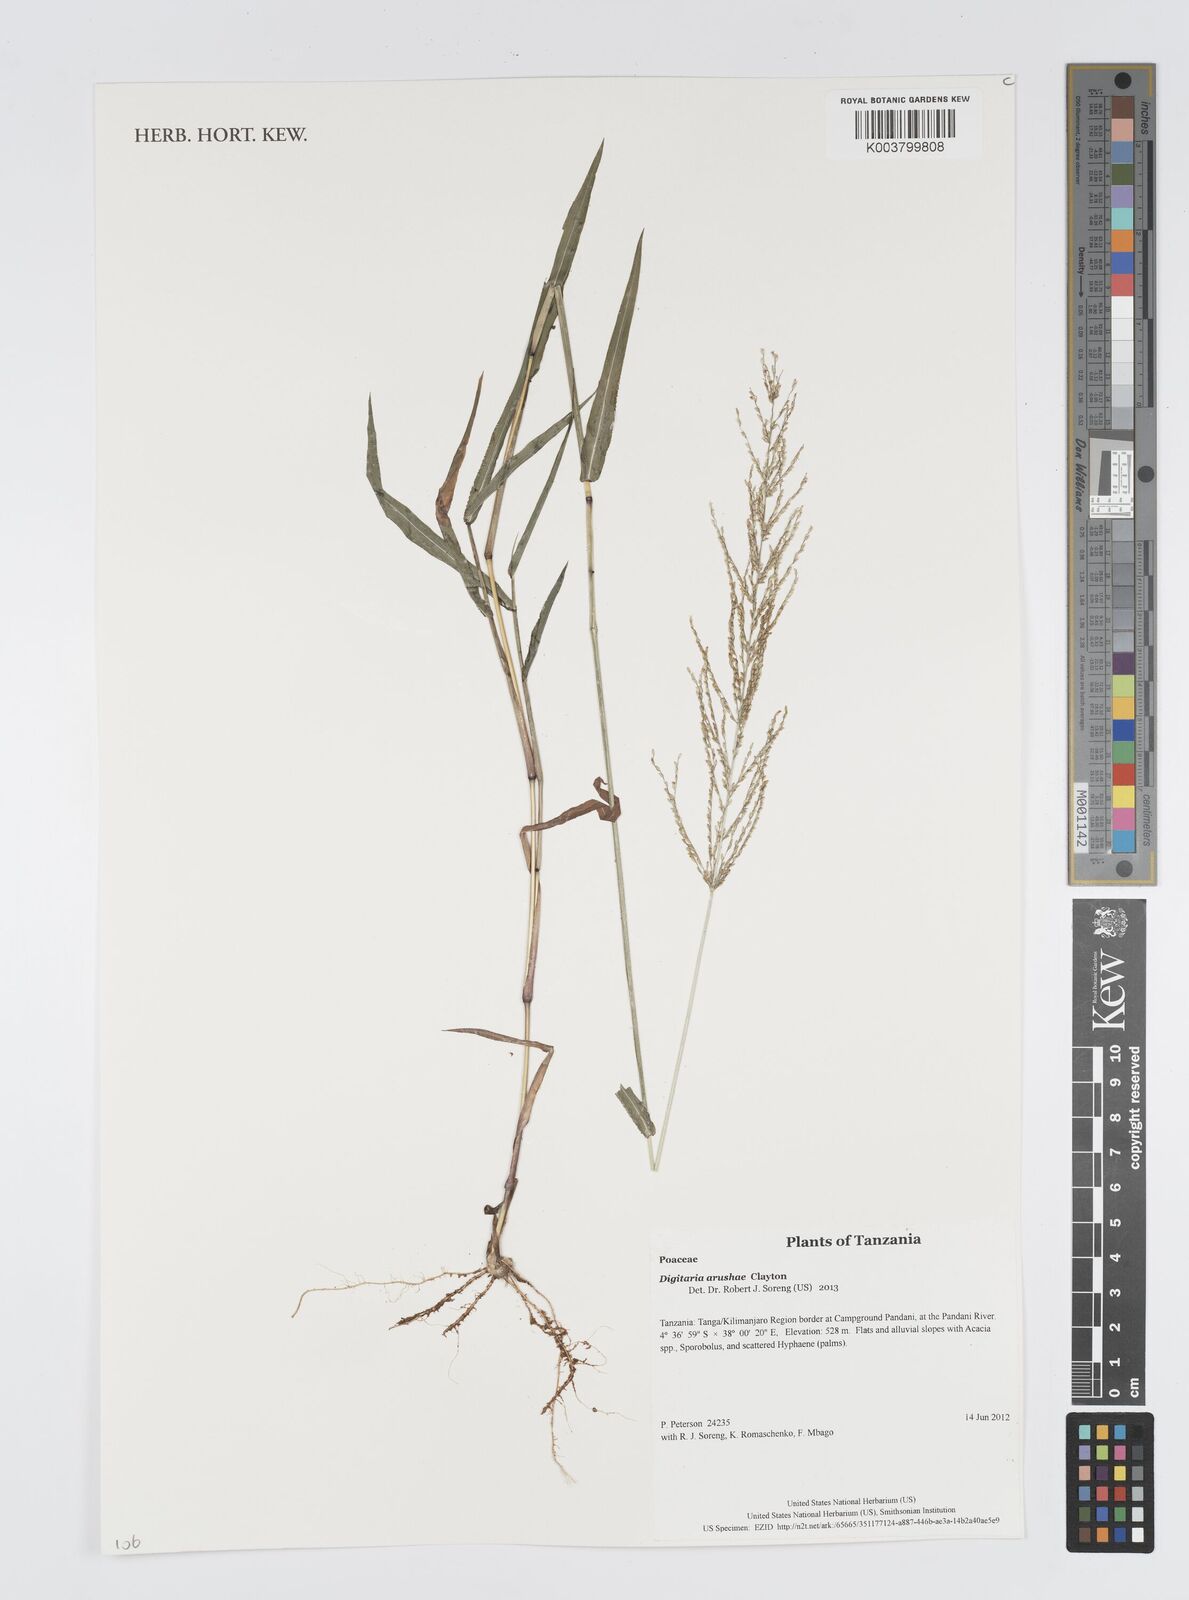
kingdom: Plantae
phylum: Tracheophyta
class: Liliopsida
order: Poales
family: Poaceae
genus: Digitaria
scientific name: Digitaria arushae
